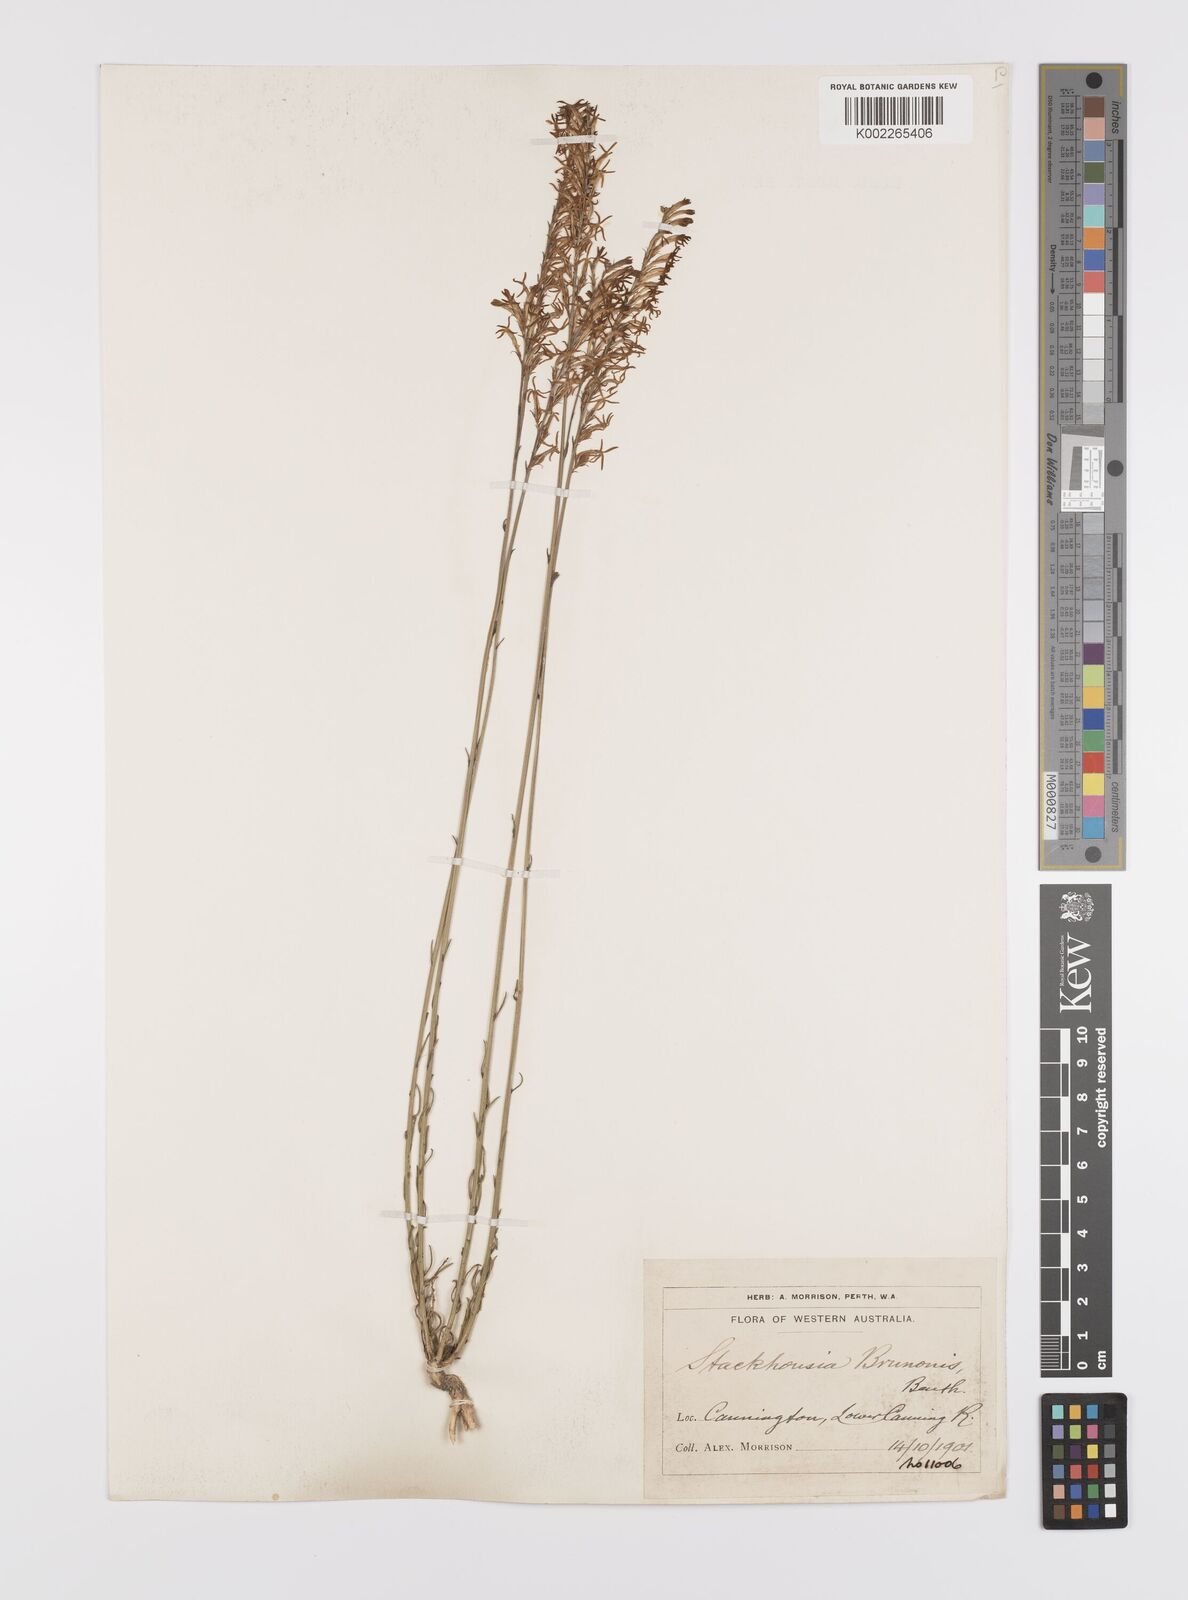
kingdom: Plantae
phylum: Tracheophyta
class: Magnoliopsida
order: Celastrales
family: Celastraceae
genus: Tripterococcus
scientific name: Tripterococcus brunonis
